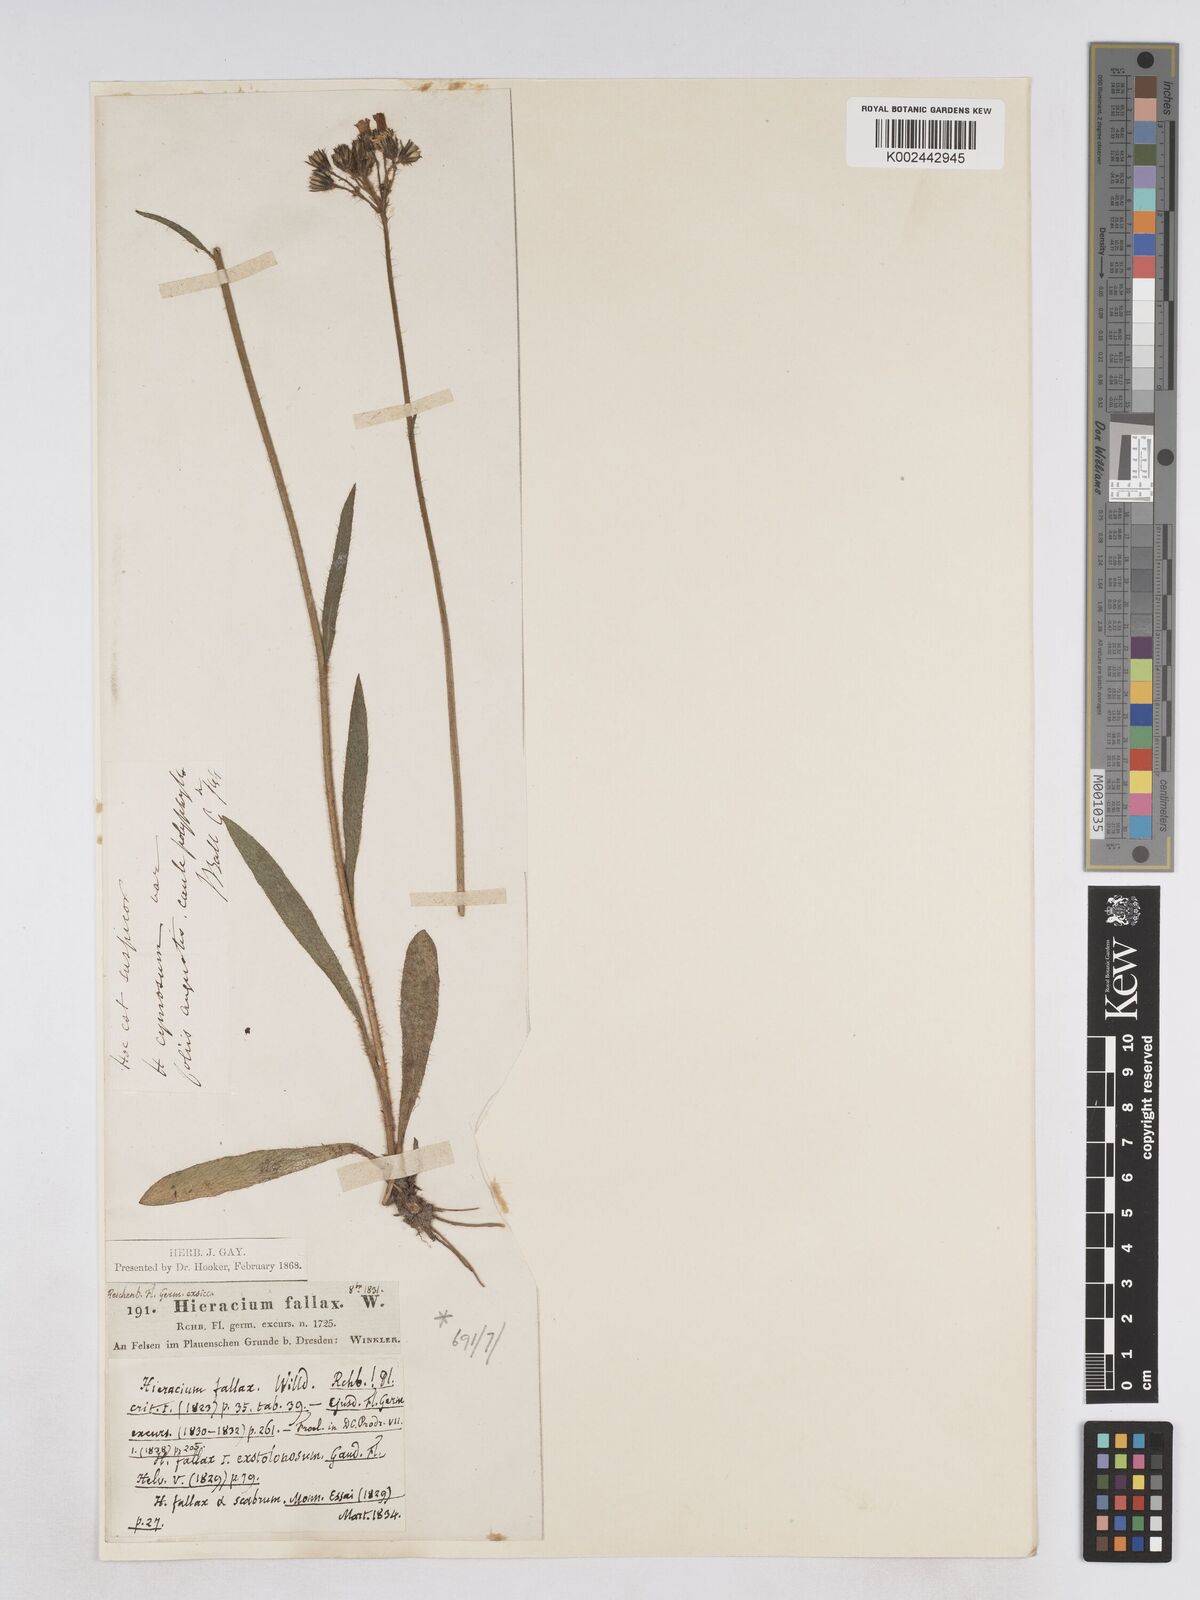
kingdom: Plantae
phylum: Tracheophyta
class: Magnoliopsida
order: Asterales
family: Asteraceae
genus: Pilosella
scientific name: Pilosella fallax
